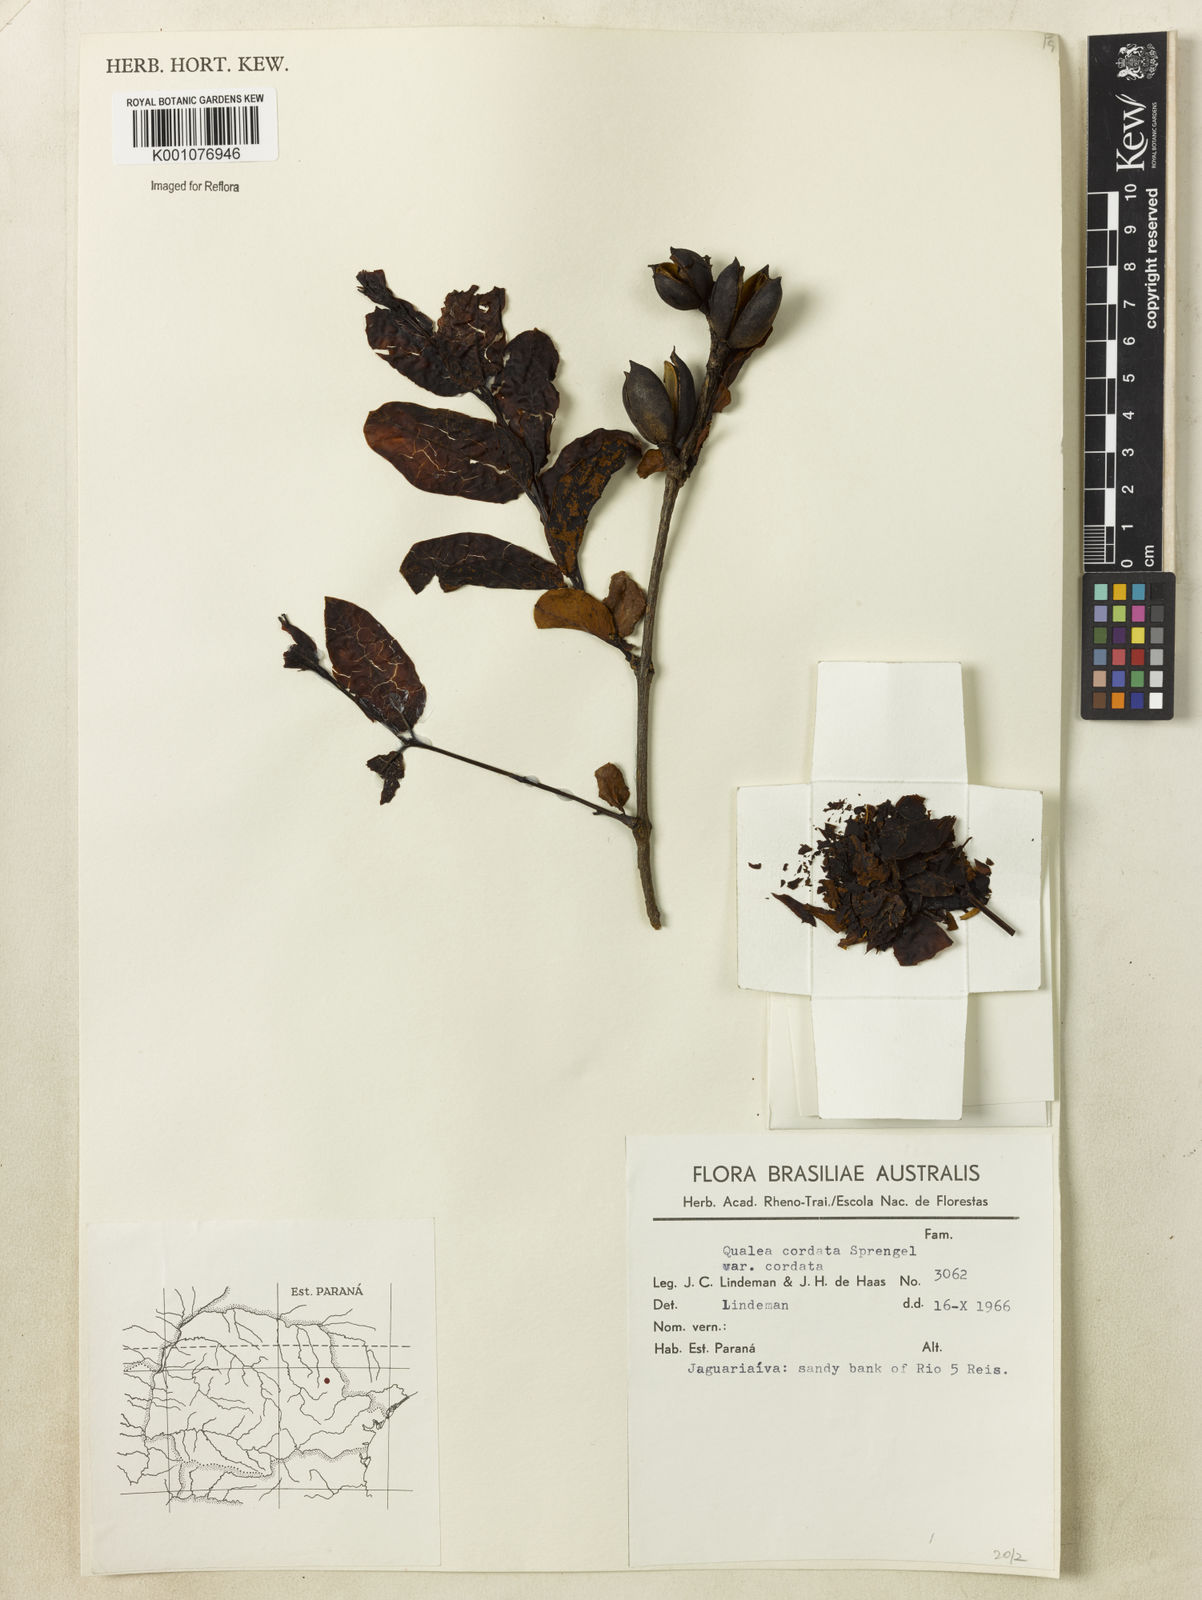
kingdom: Plantae
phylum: Tracheophyta
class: Magnoliopsida
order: Myrtales
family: Vochysiaceae
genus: Qualea
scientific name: Qualea cordata
